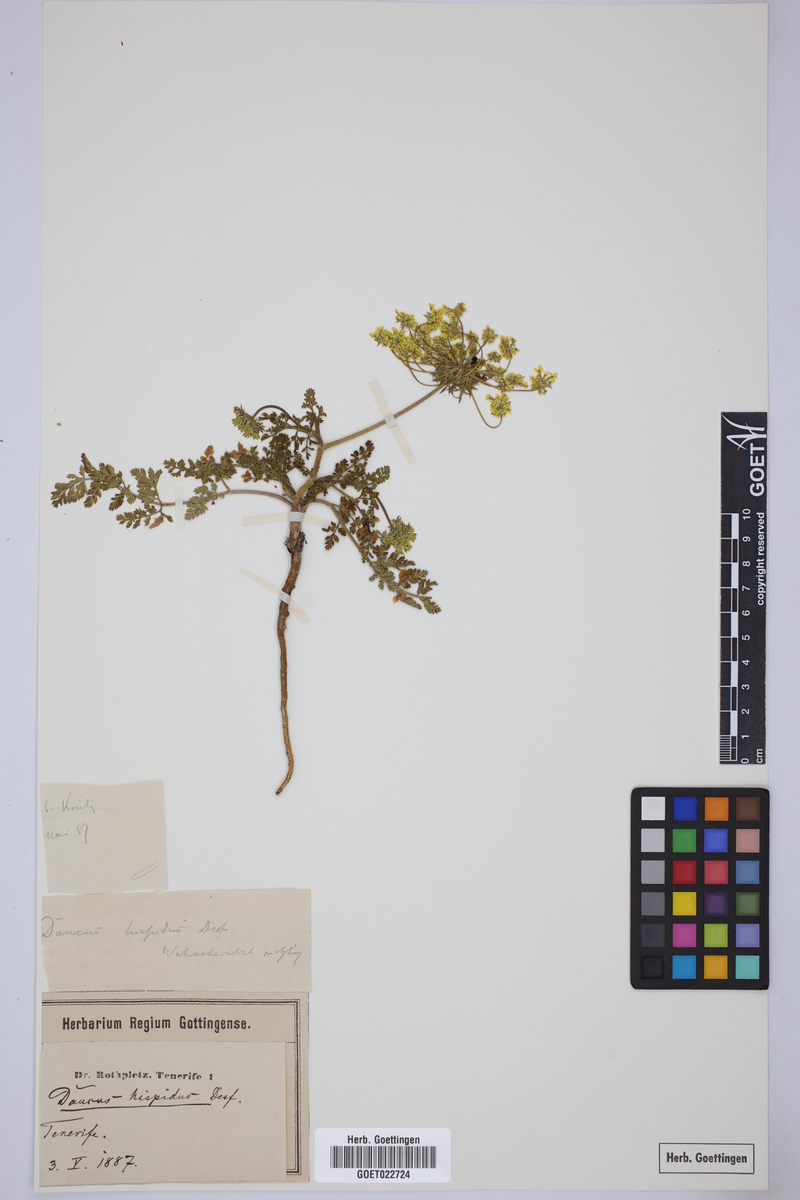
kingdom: Plantae
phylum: Tracheophyta
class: Magnoliopsida
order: Apiales
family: Apiaceae
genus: Daucus
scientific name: Daucus carota
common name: Wild carrot
